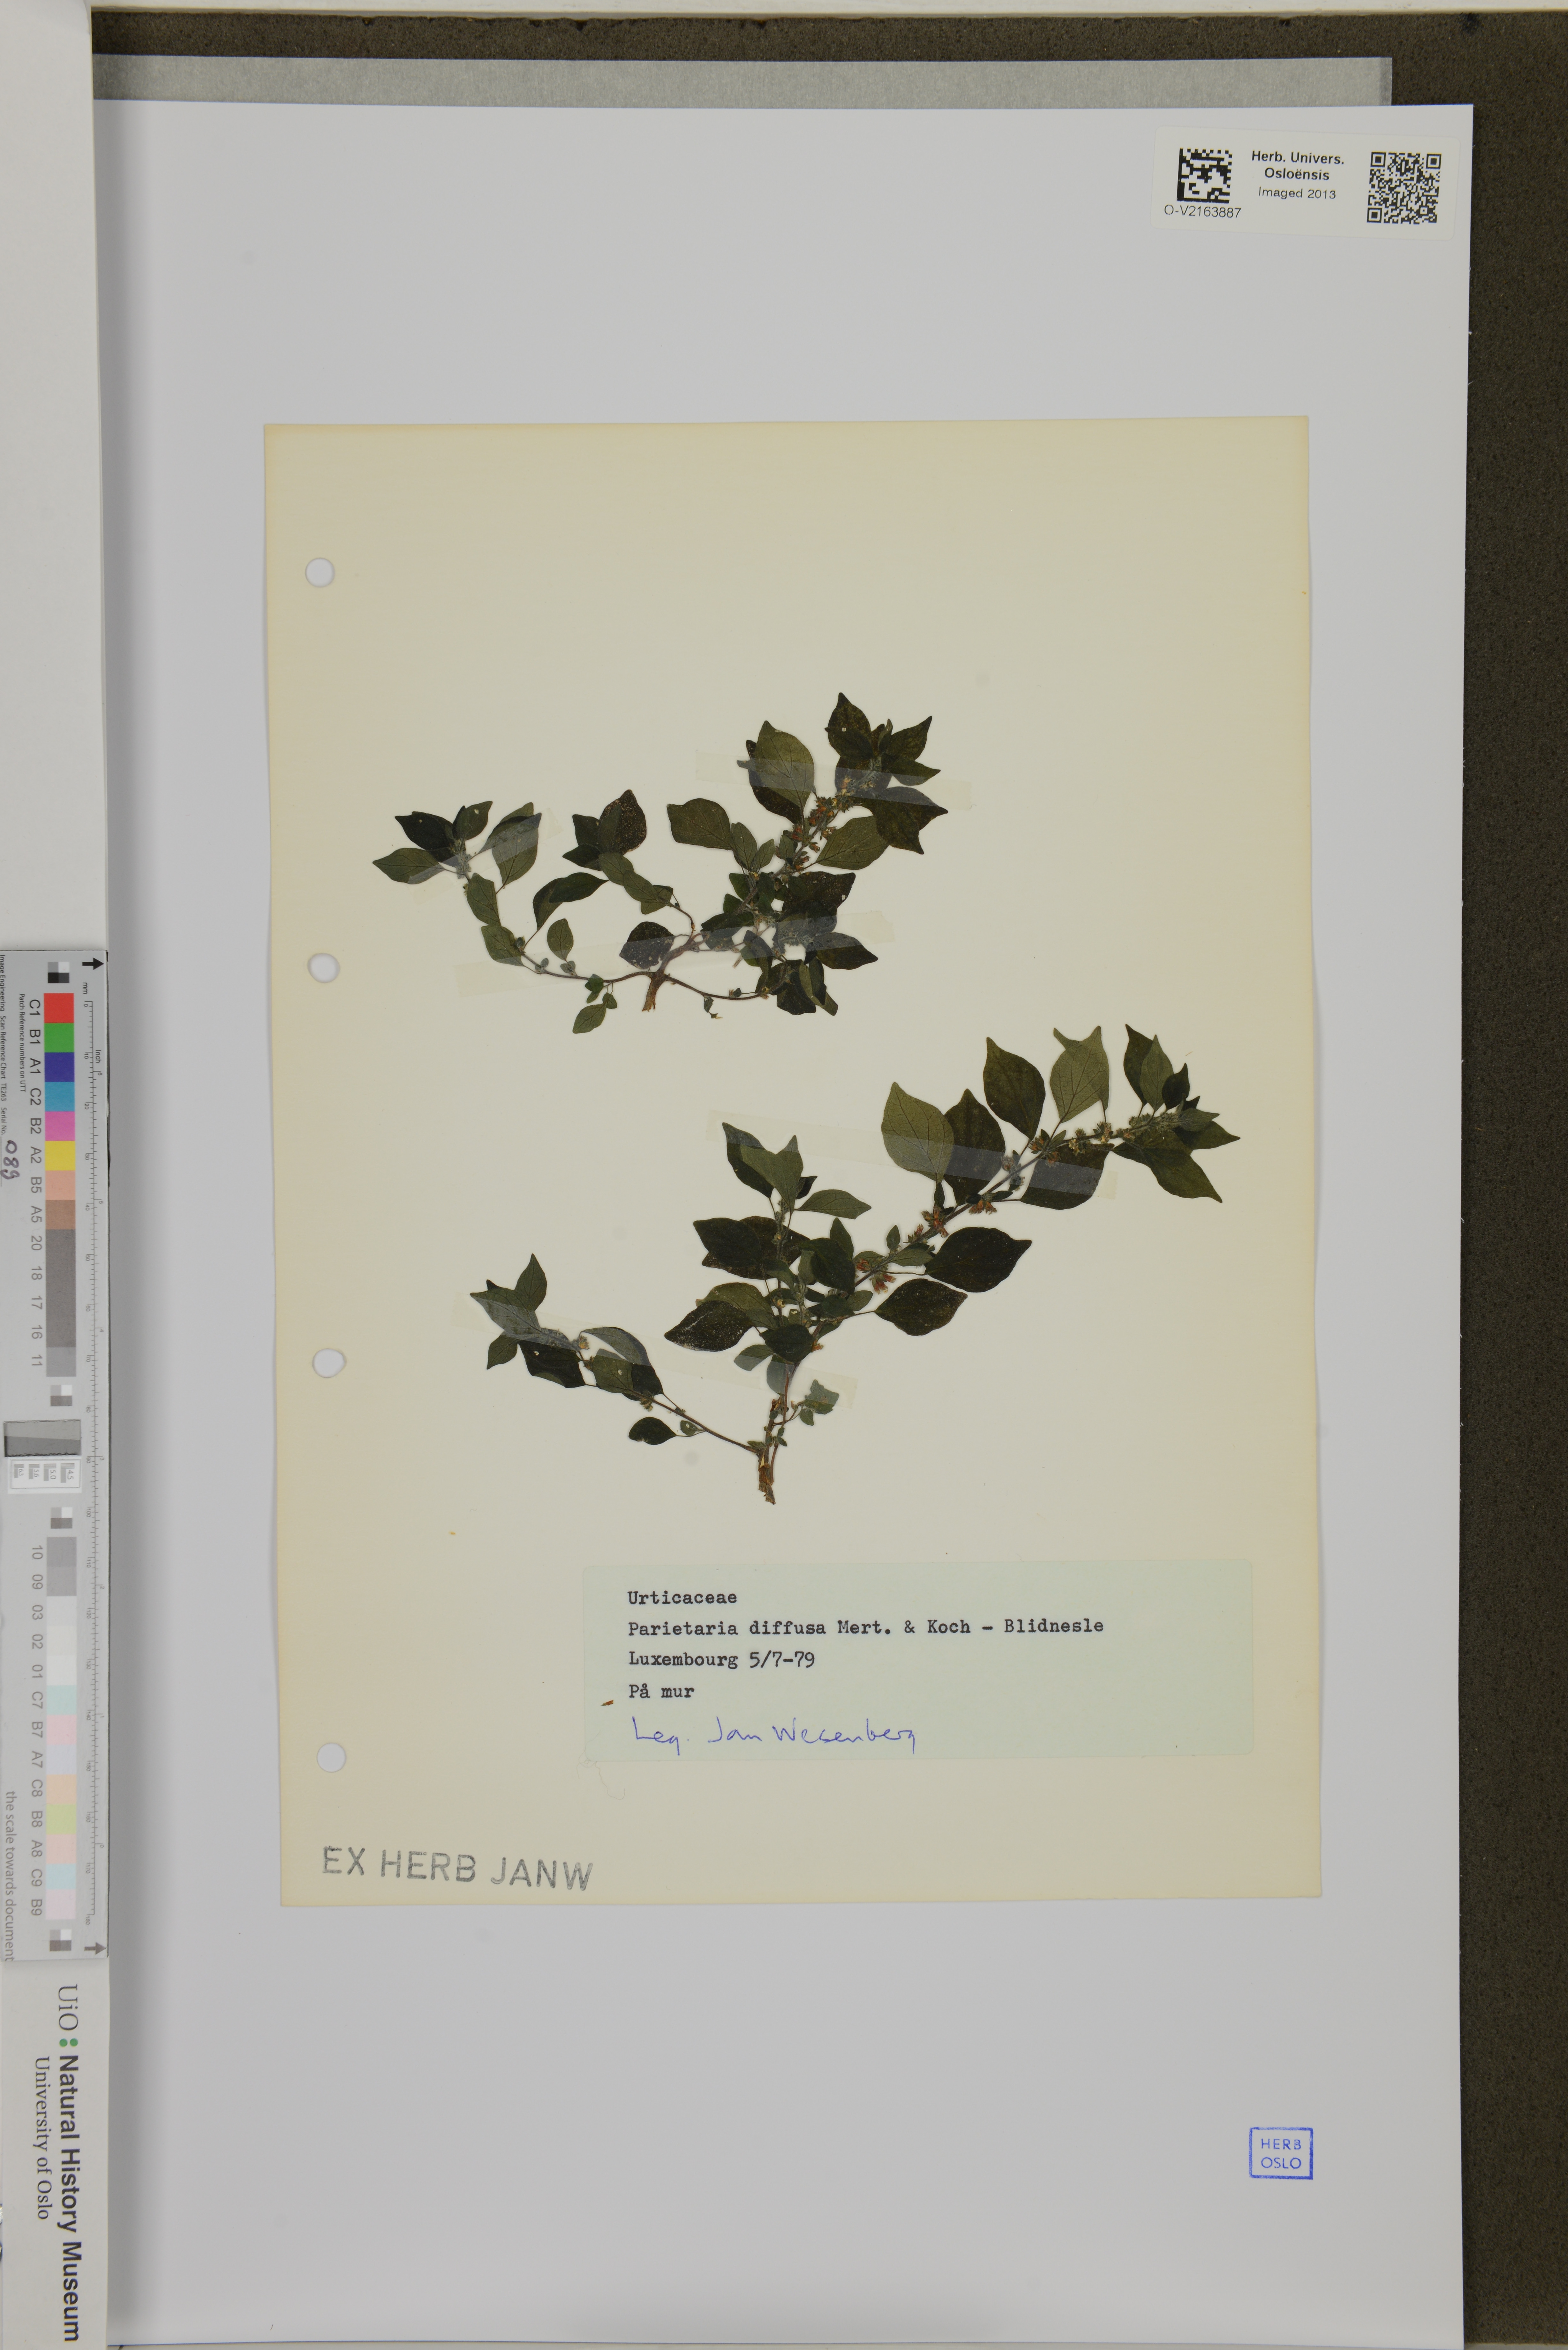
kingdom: Plantae
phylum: Tracheophyta
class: Magnoliopsida
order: Rosales
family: Urticaceae
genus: Parietaria
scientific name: Parietaria judaica
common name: Pellitory-of-the-wall
